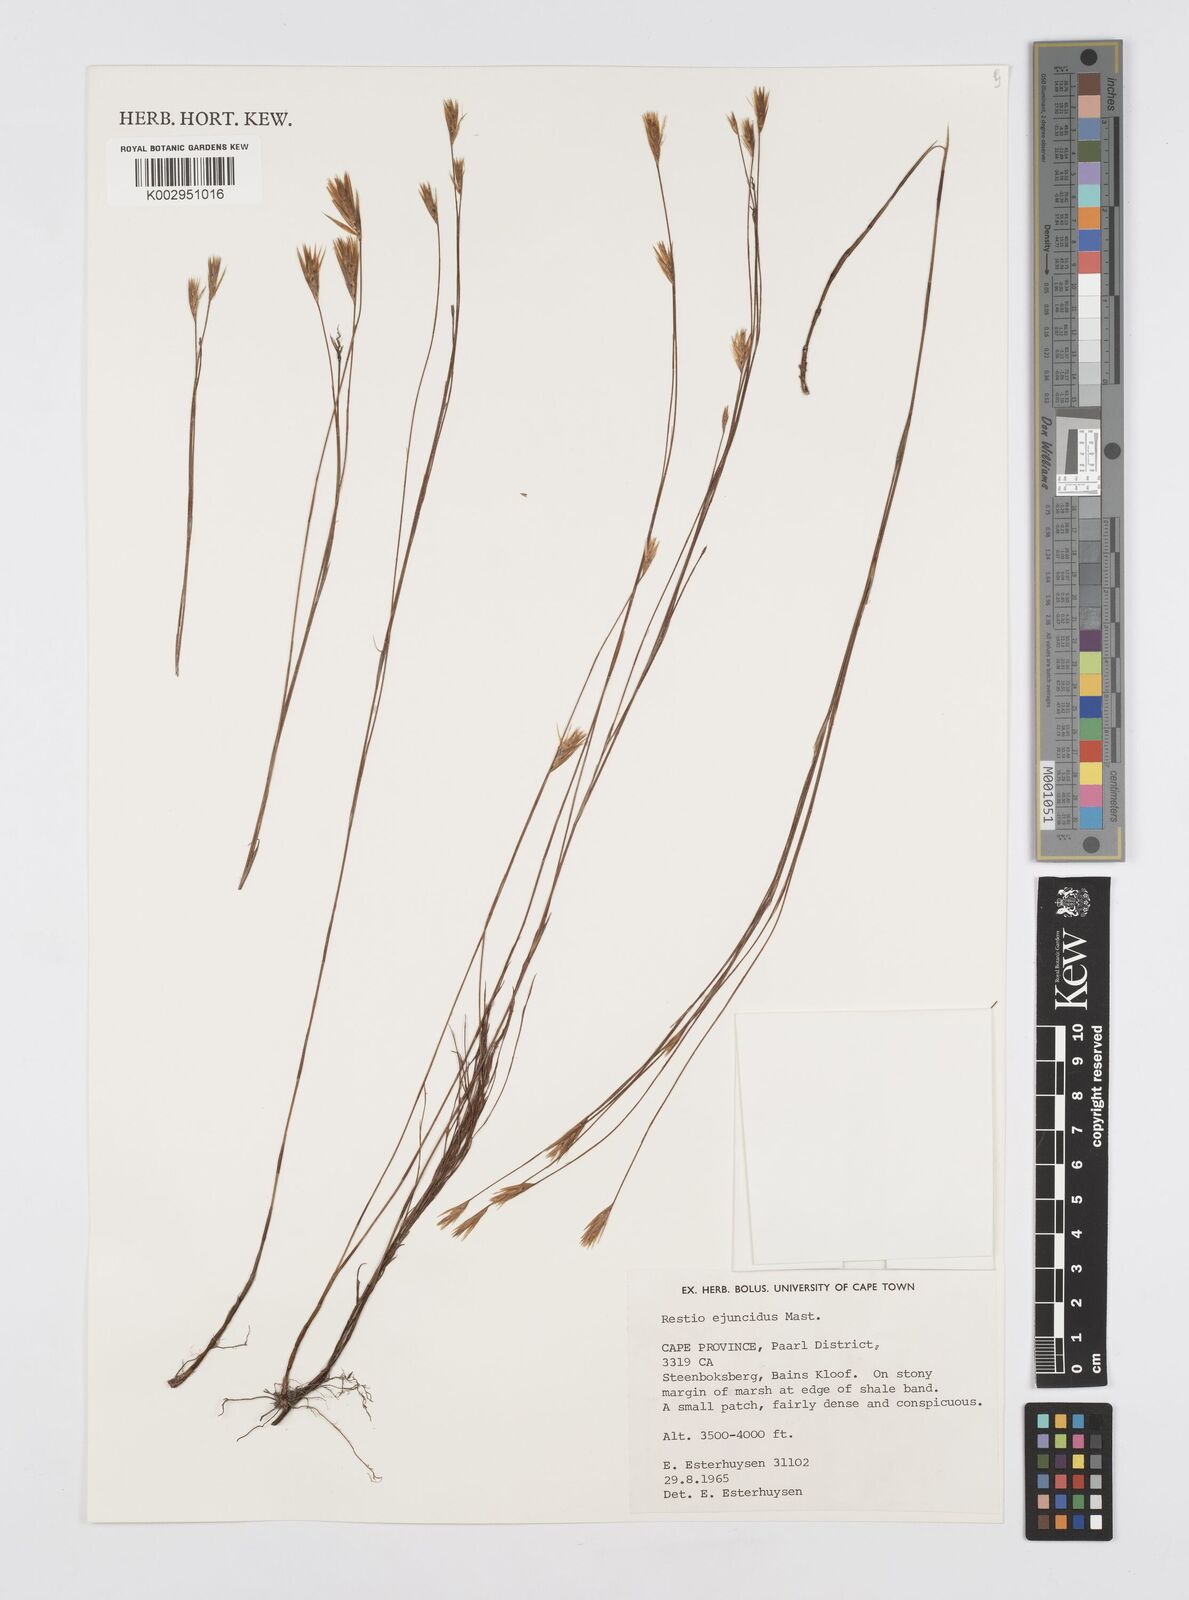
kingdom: Plantae
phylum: Tracheophyta
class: Liliopsida
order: Poales
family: Restionaceae
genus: Restio
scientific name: Restio ejuncidus
